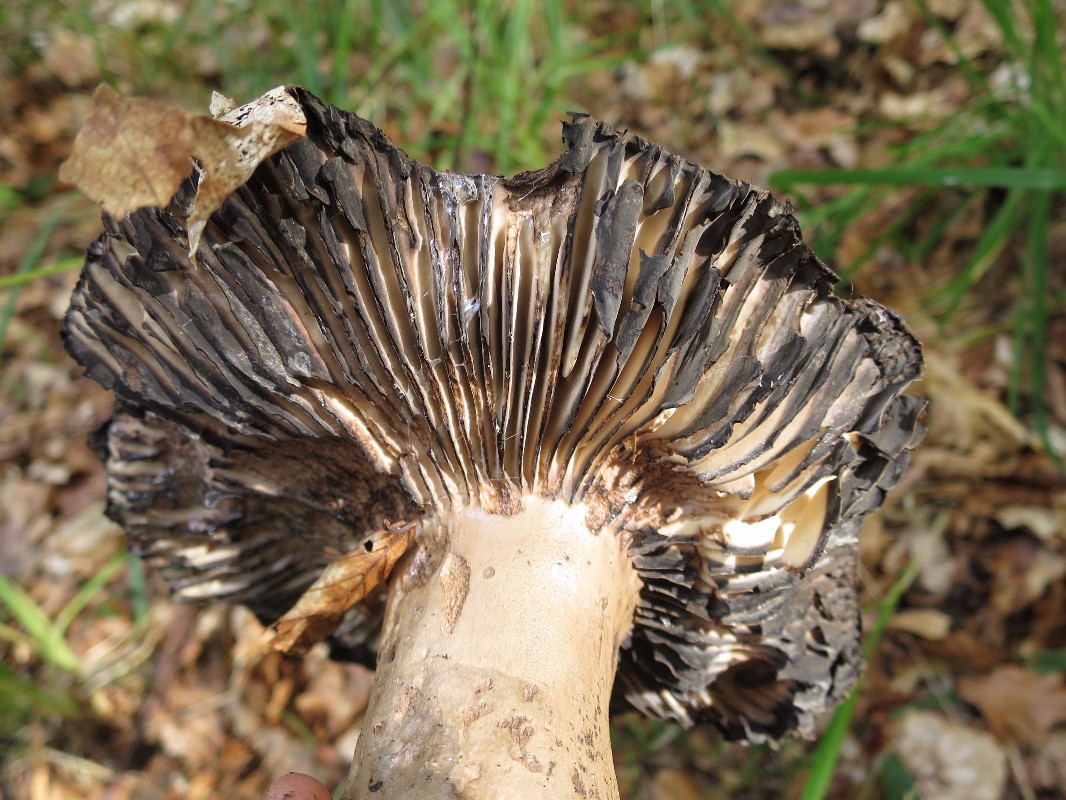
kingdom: Fungi
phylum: Basidiomycota
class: Agaricomycetes
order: Russulales
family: Russulaceae
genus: Russula
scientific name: Russula adusta
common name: sværtende skørhat
